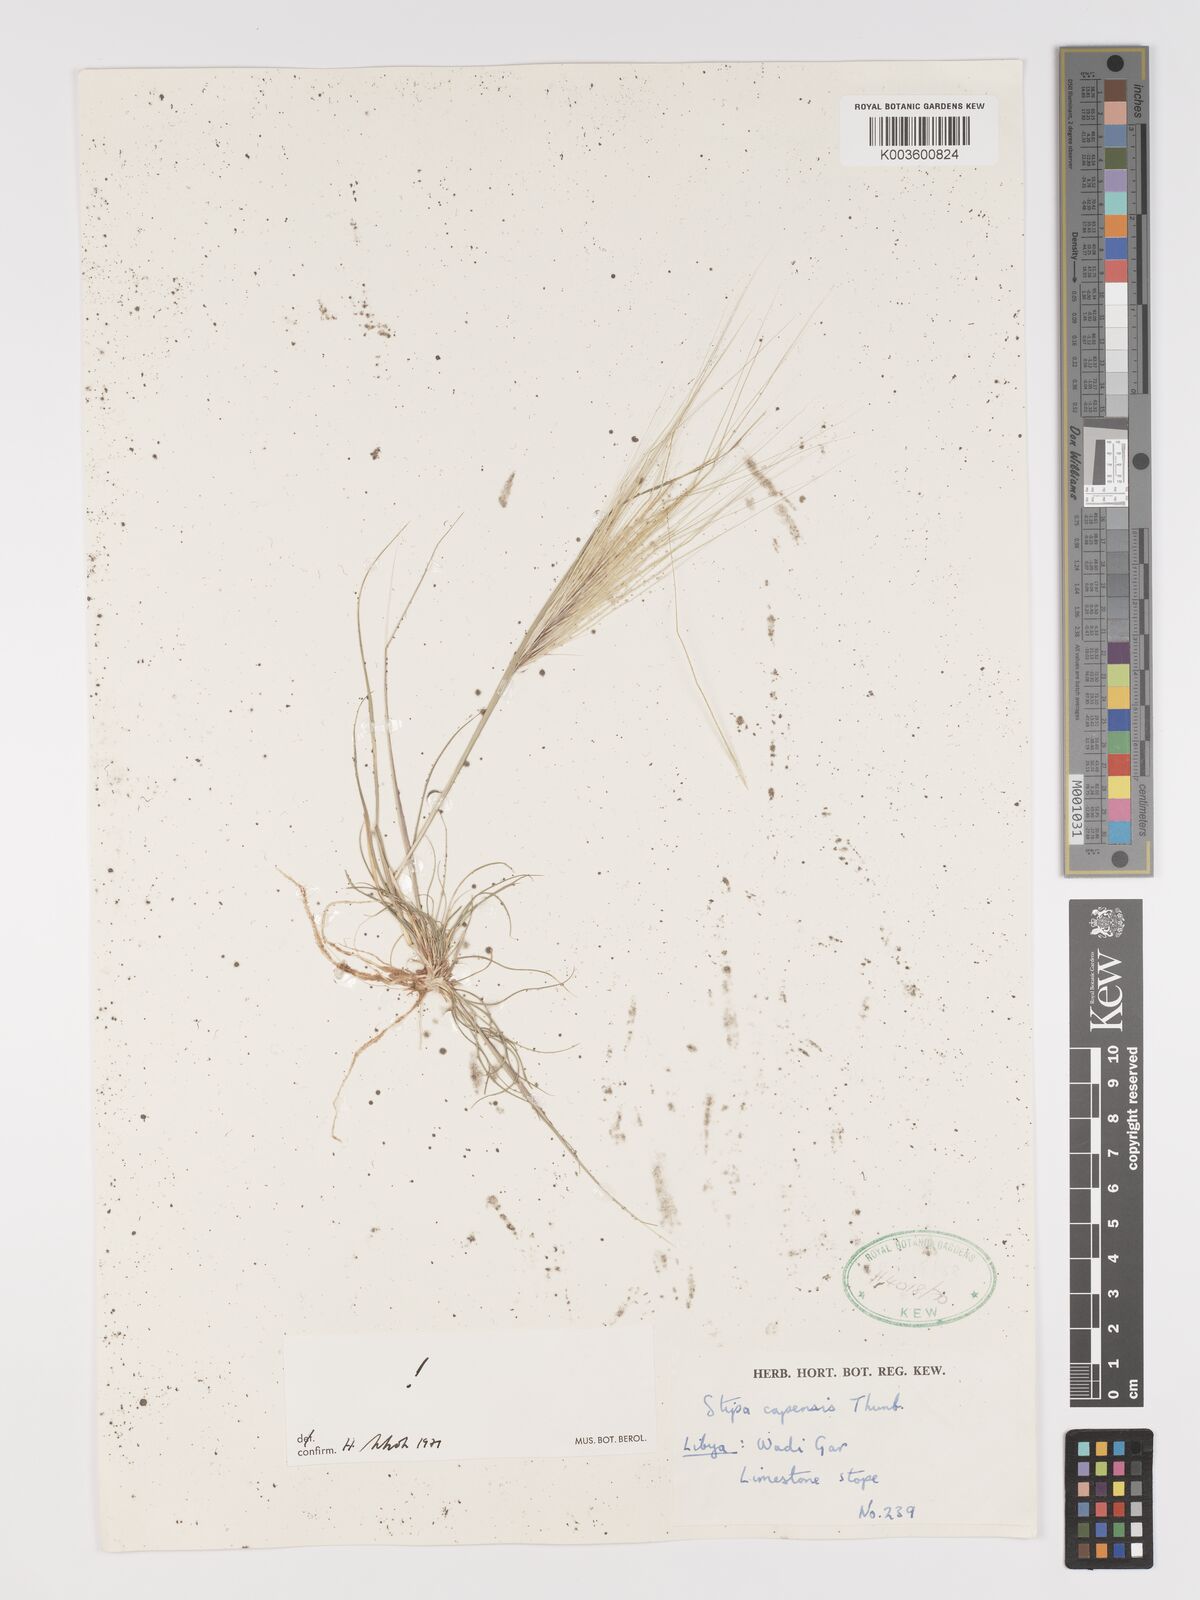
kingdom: Plantae
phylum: Tracheophyta
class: Liliopsida
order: Poales
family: Poaceae
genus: Stipellula
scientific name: Stipellula capensis
